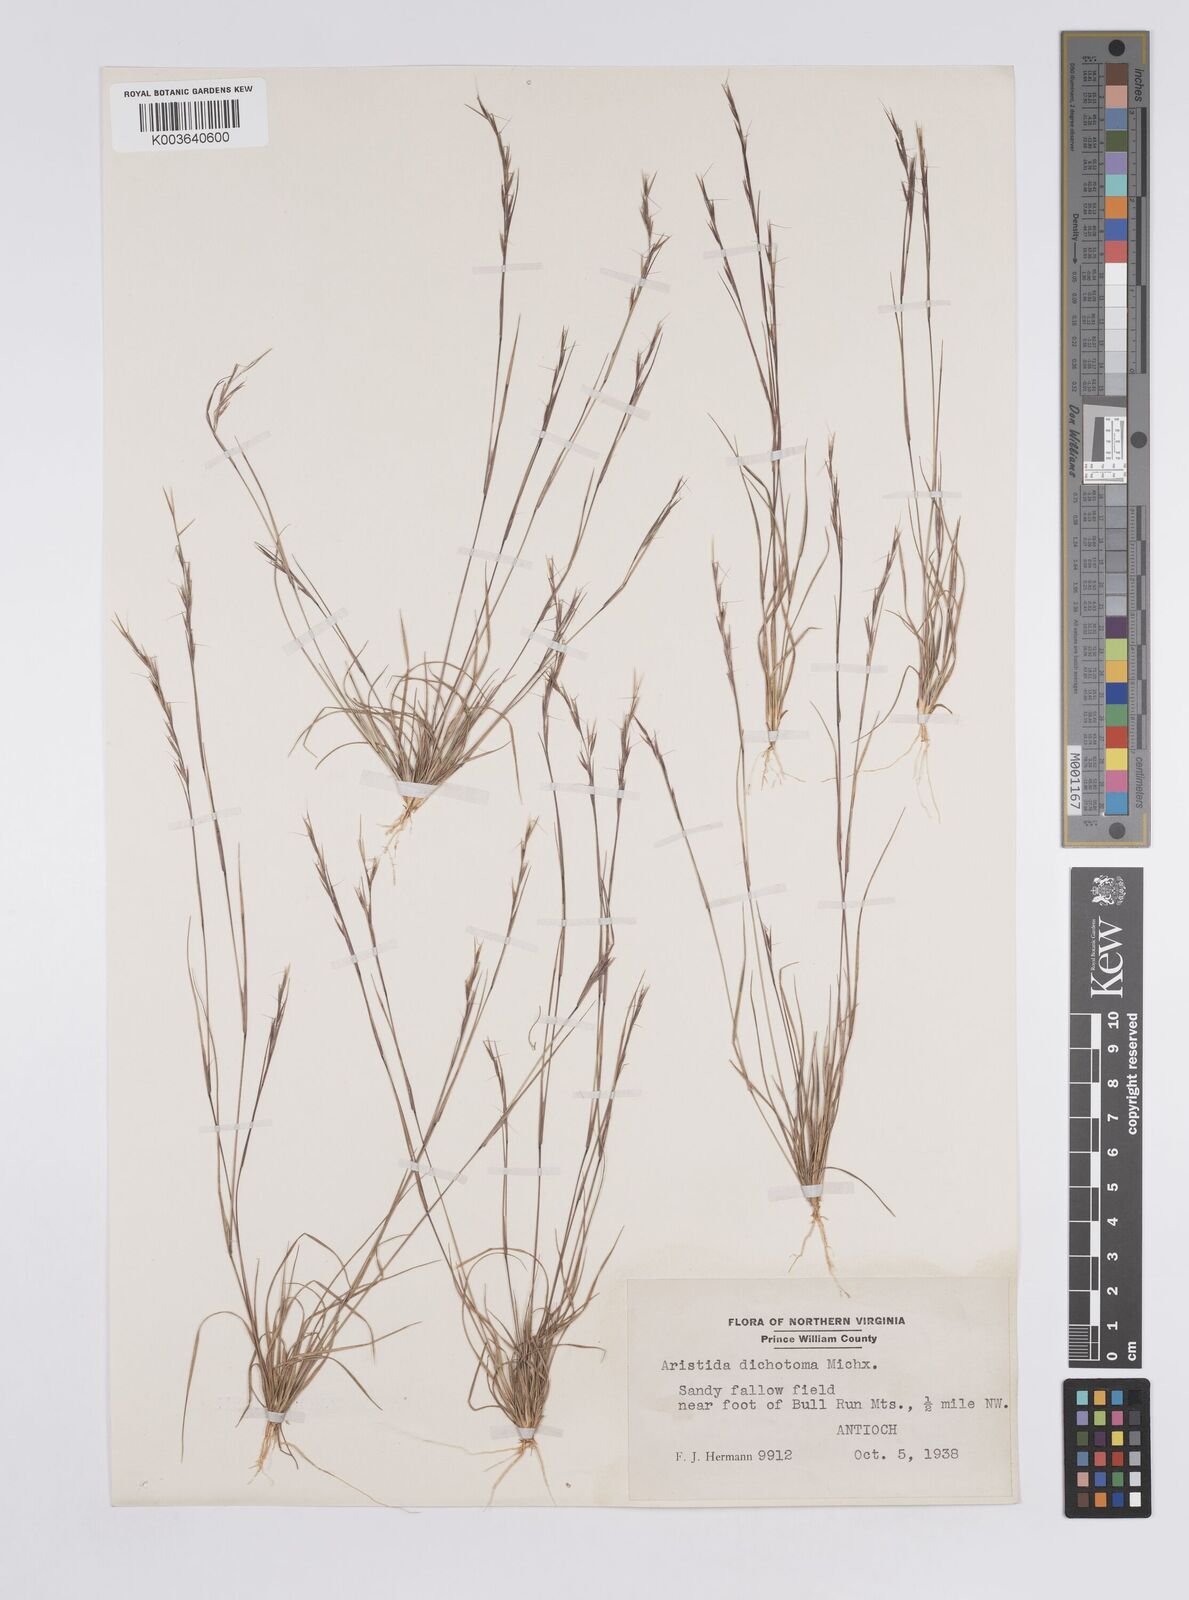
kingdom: Plantae
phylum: Tracheophyta
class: Liliopsida
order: Poales
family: Poaceae
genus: Aristida
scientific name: Aristida dichotoma
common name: Churchmouse three-awn
